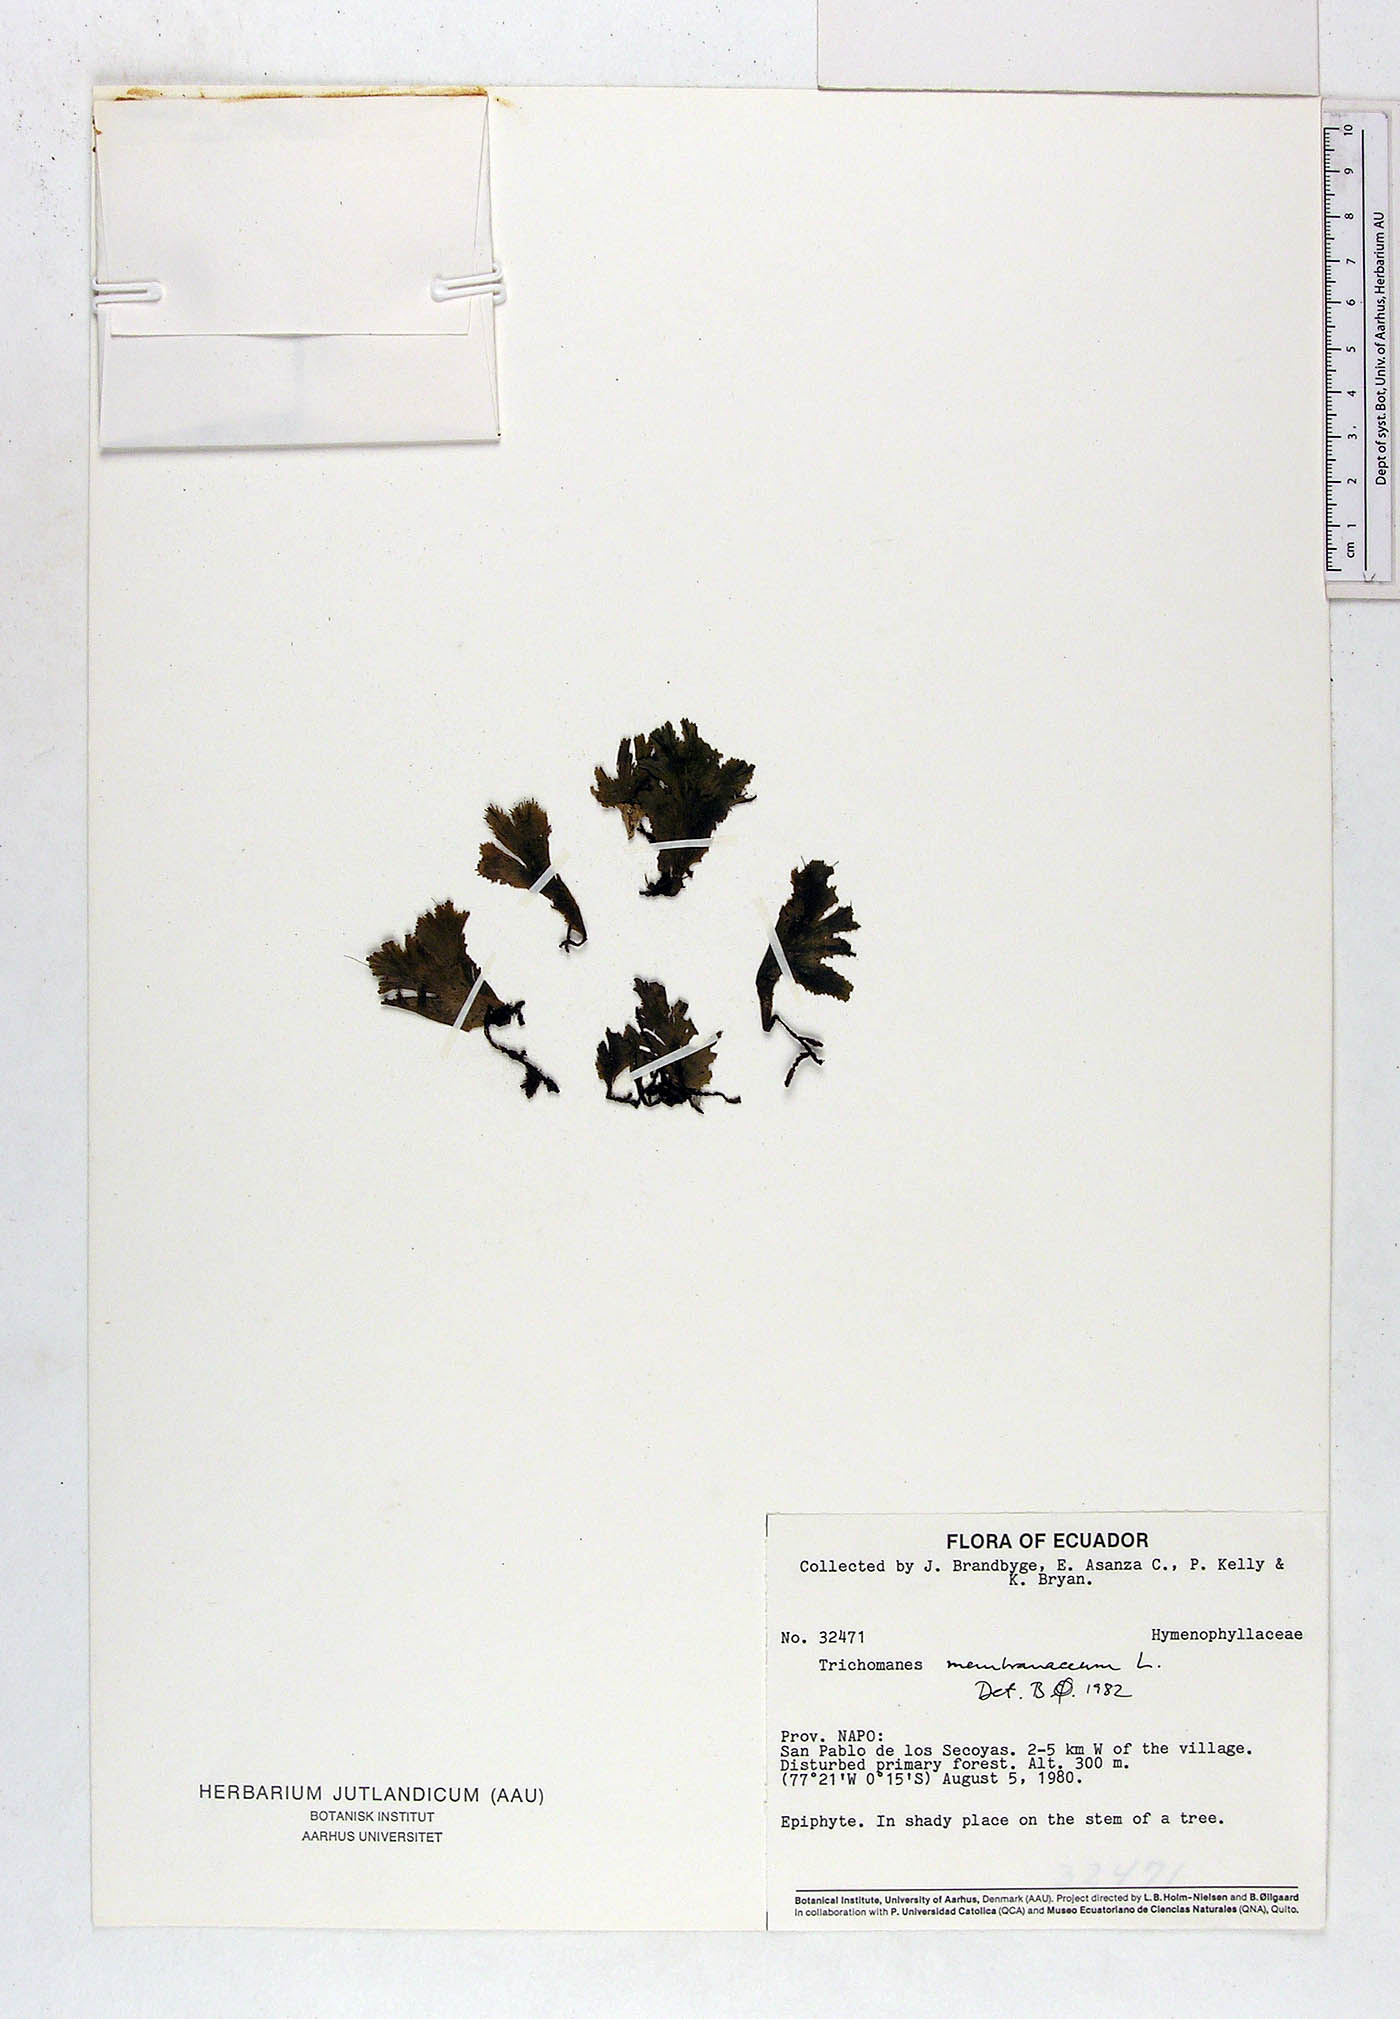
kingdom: Plantae
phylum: Tracheophyta
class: Polypodiopsida
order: Hymenophyllales
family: Hymenophyllaceae
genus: Didymoglossum
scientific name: Didymoglossum membranaceum
